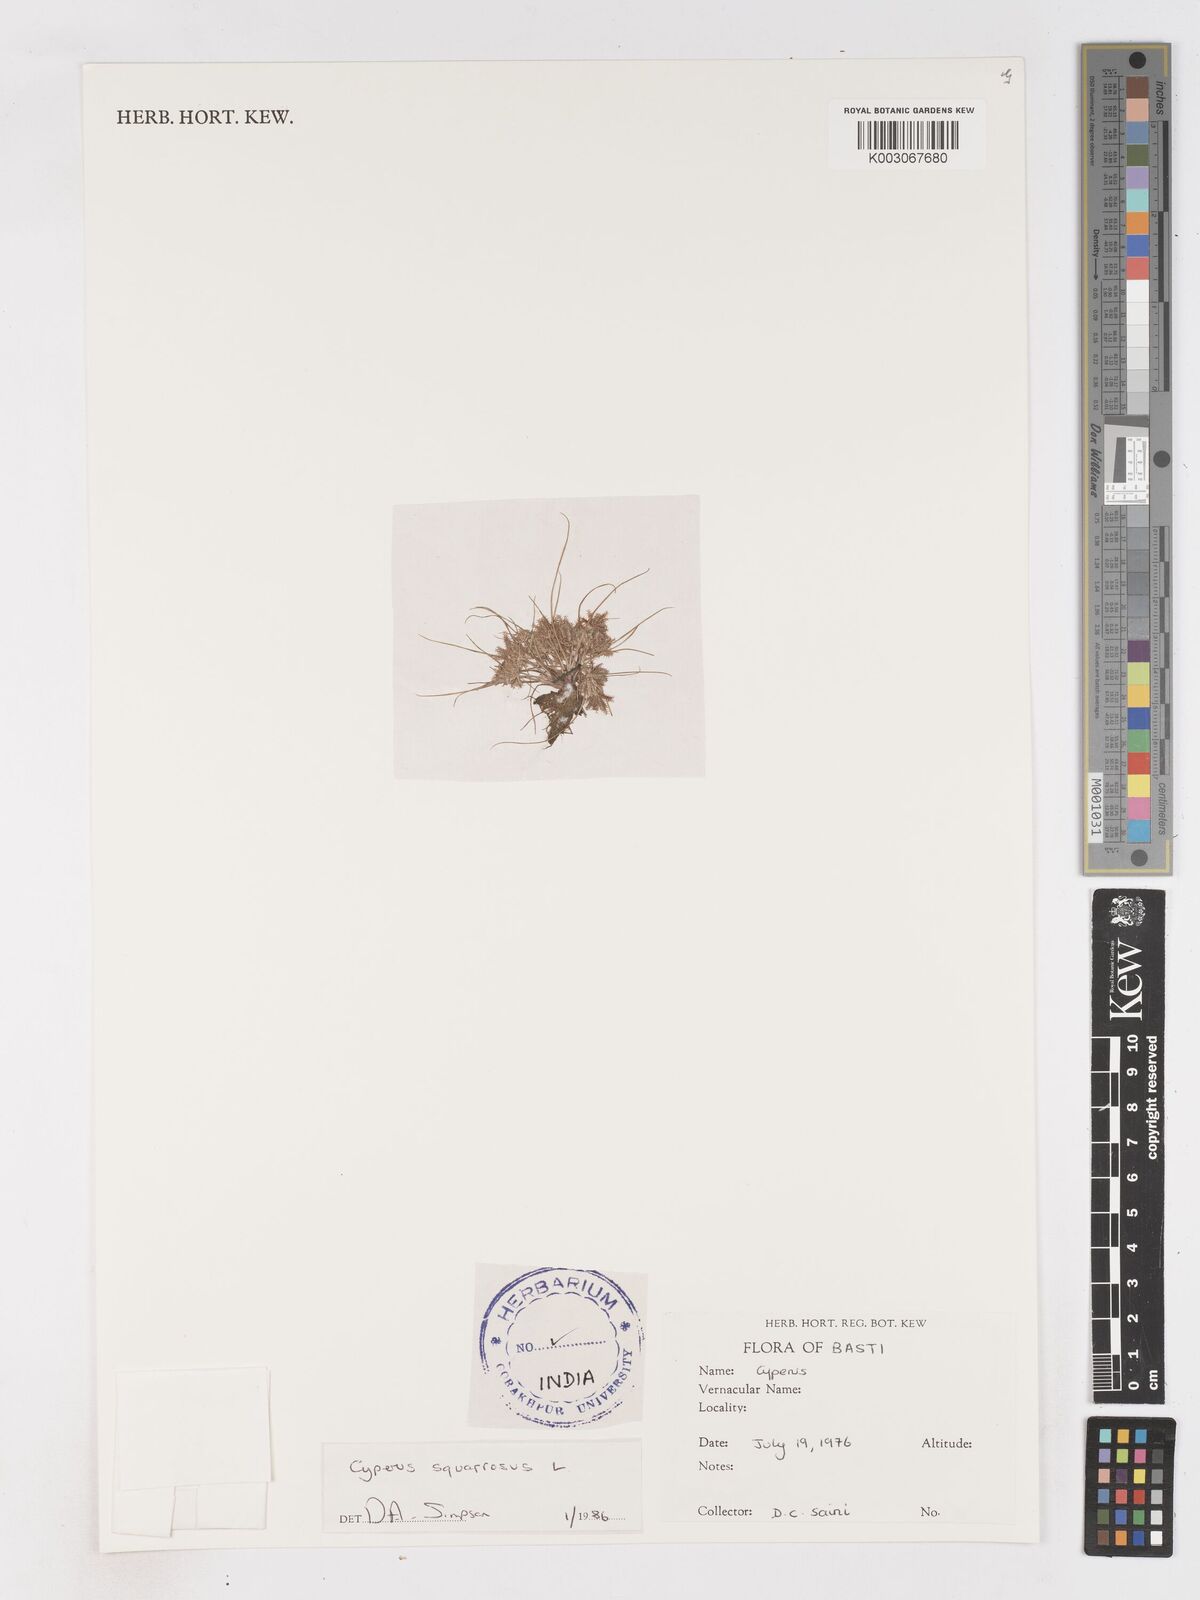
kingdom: Plantae
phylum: Tracheophyta
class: Liliopsida
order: Poales
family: Cyperaceae
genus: Cyperus
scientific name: Cyperus squarrosus
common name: Awned cyperus
